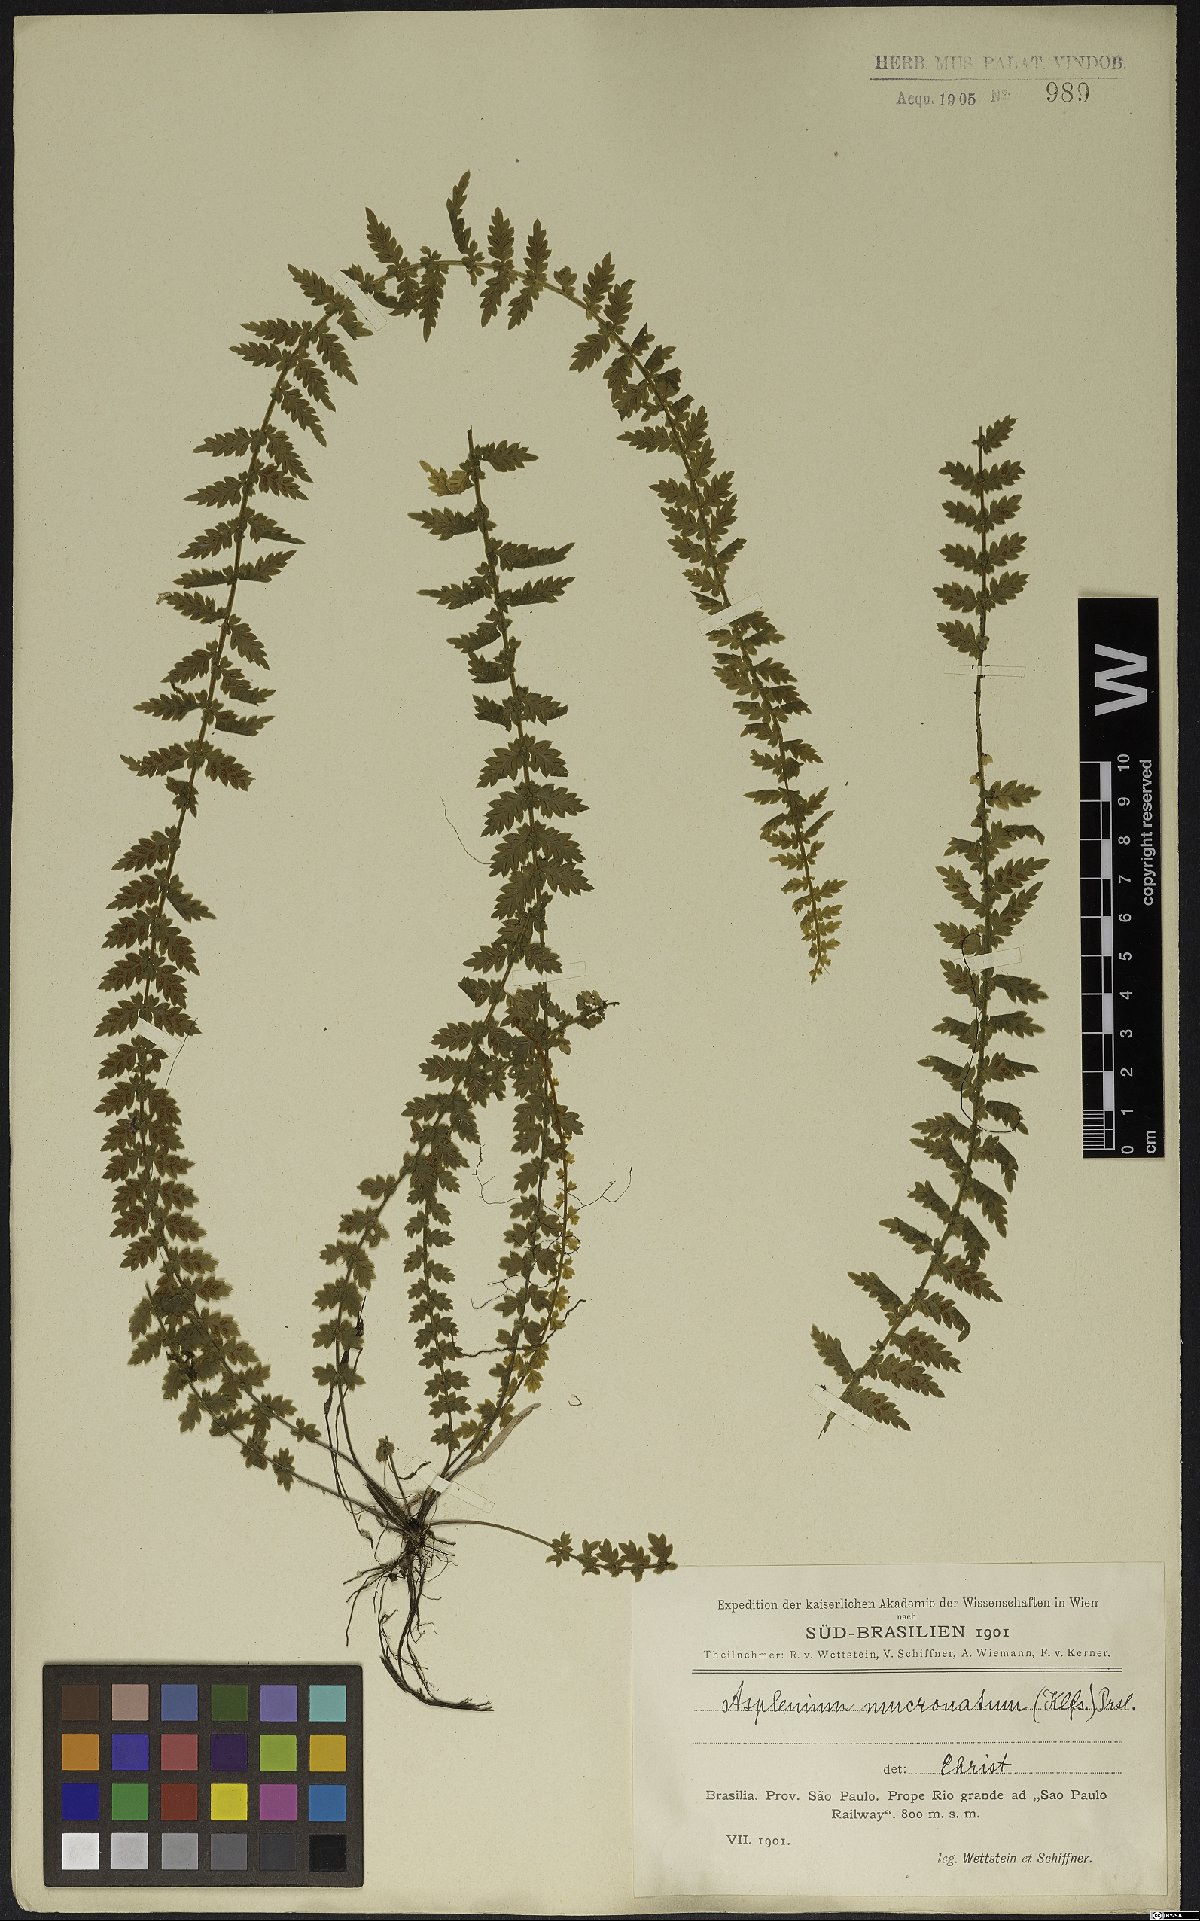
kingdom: Plantae
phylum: Tracheophyta
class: Polypodiopsida
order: Polypodiales
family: Aspleniaceae
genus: Asplenium
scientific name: Asplenium mucronatum
